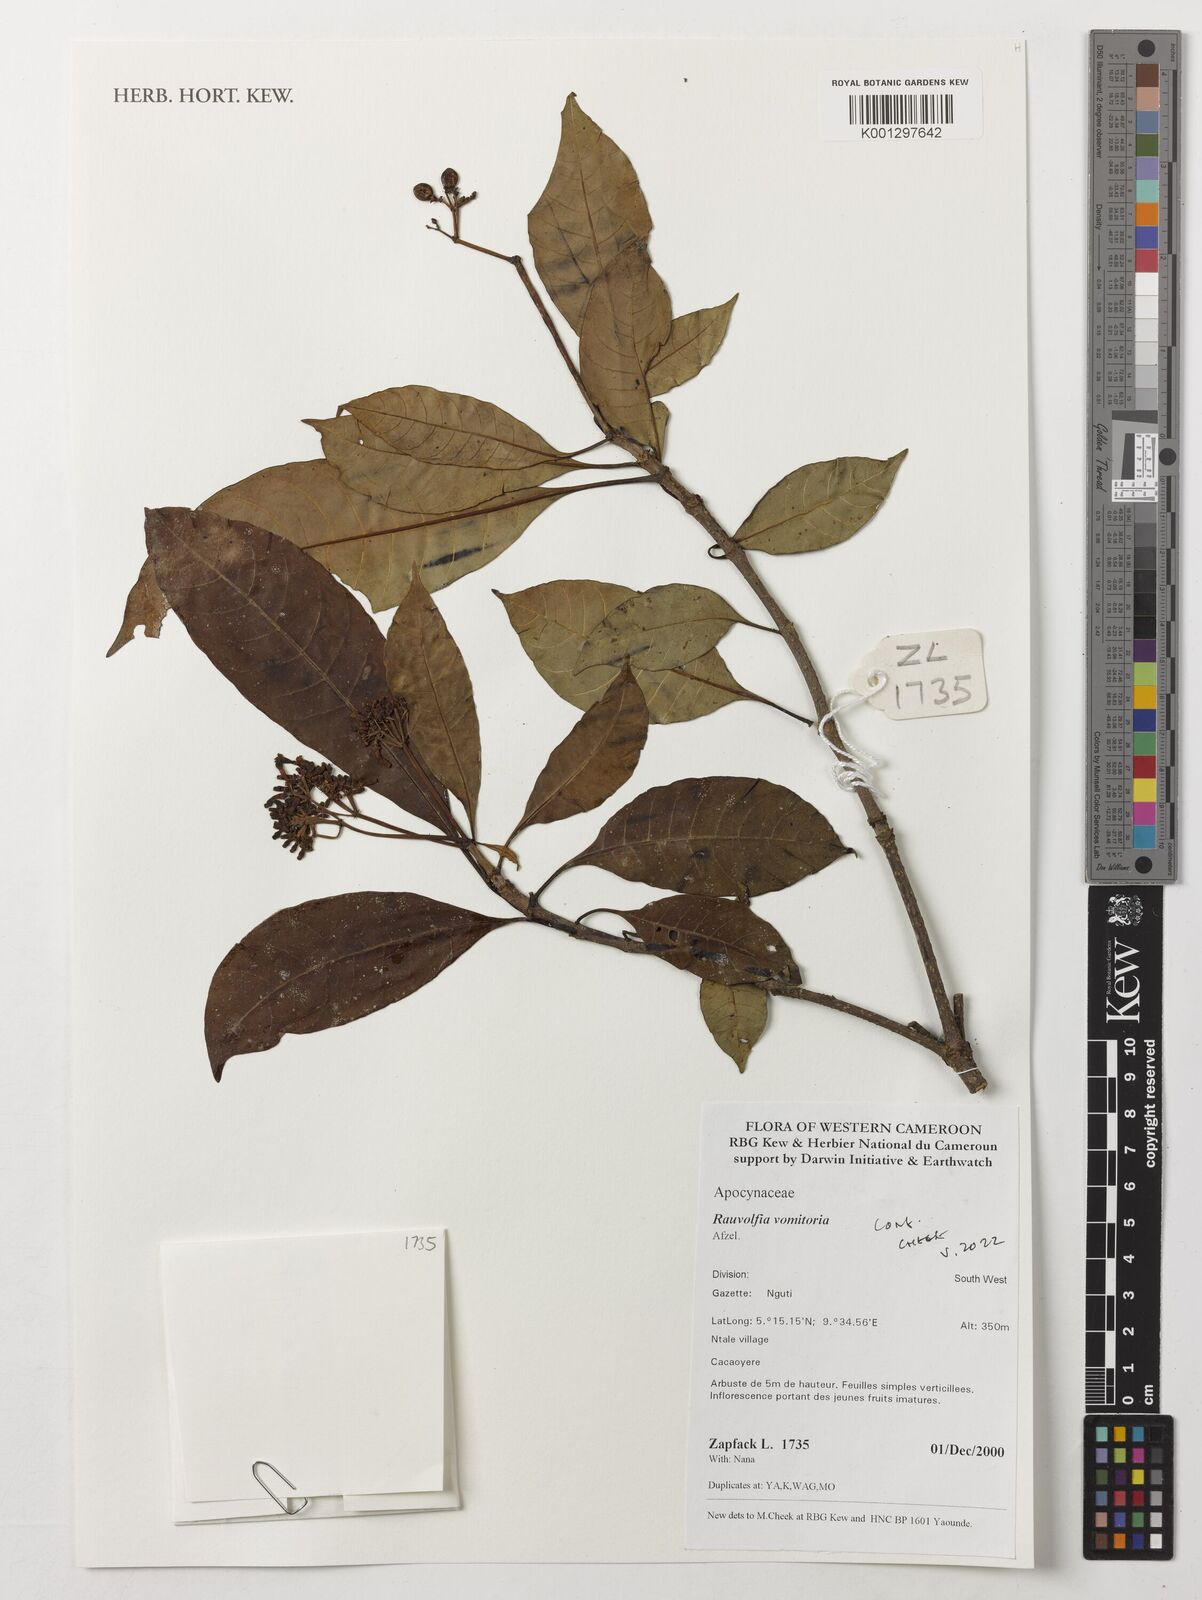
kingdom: Plantae
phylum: Tracheophyta
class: Magnoliopsida
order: Gentianales
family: Apocynaceae
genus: Rauvolfia
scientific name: Rauvolfia vomitoria
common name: Poison devil's-pepper
